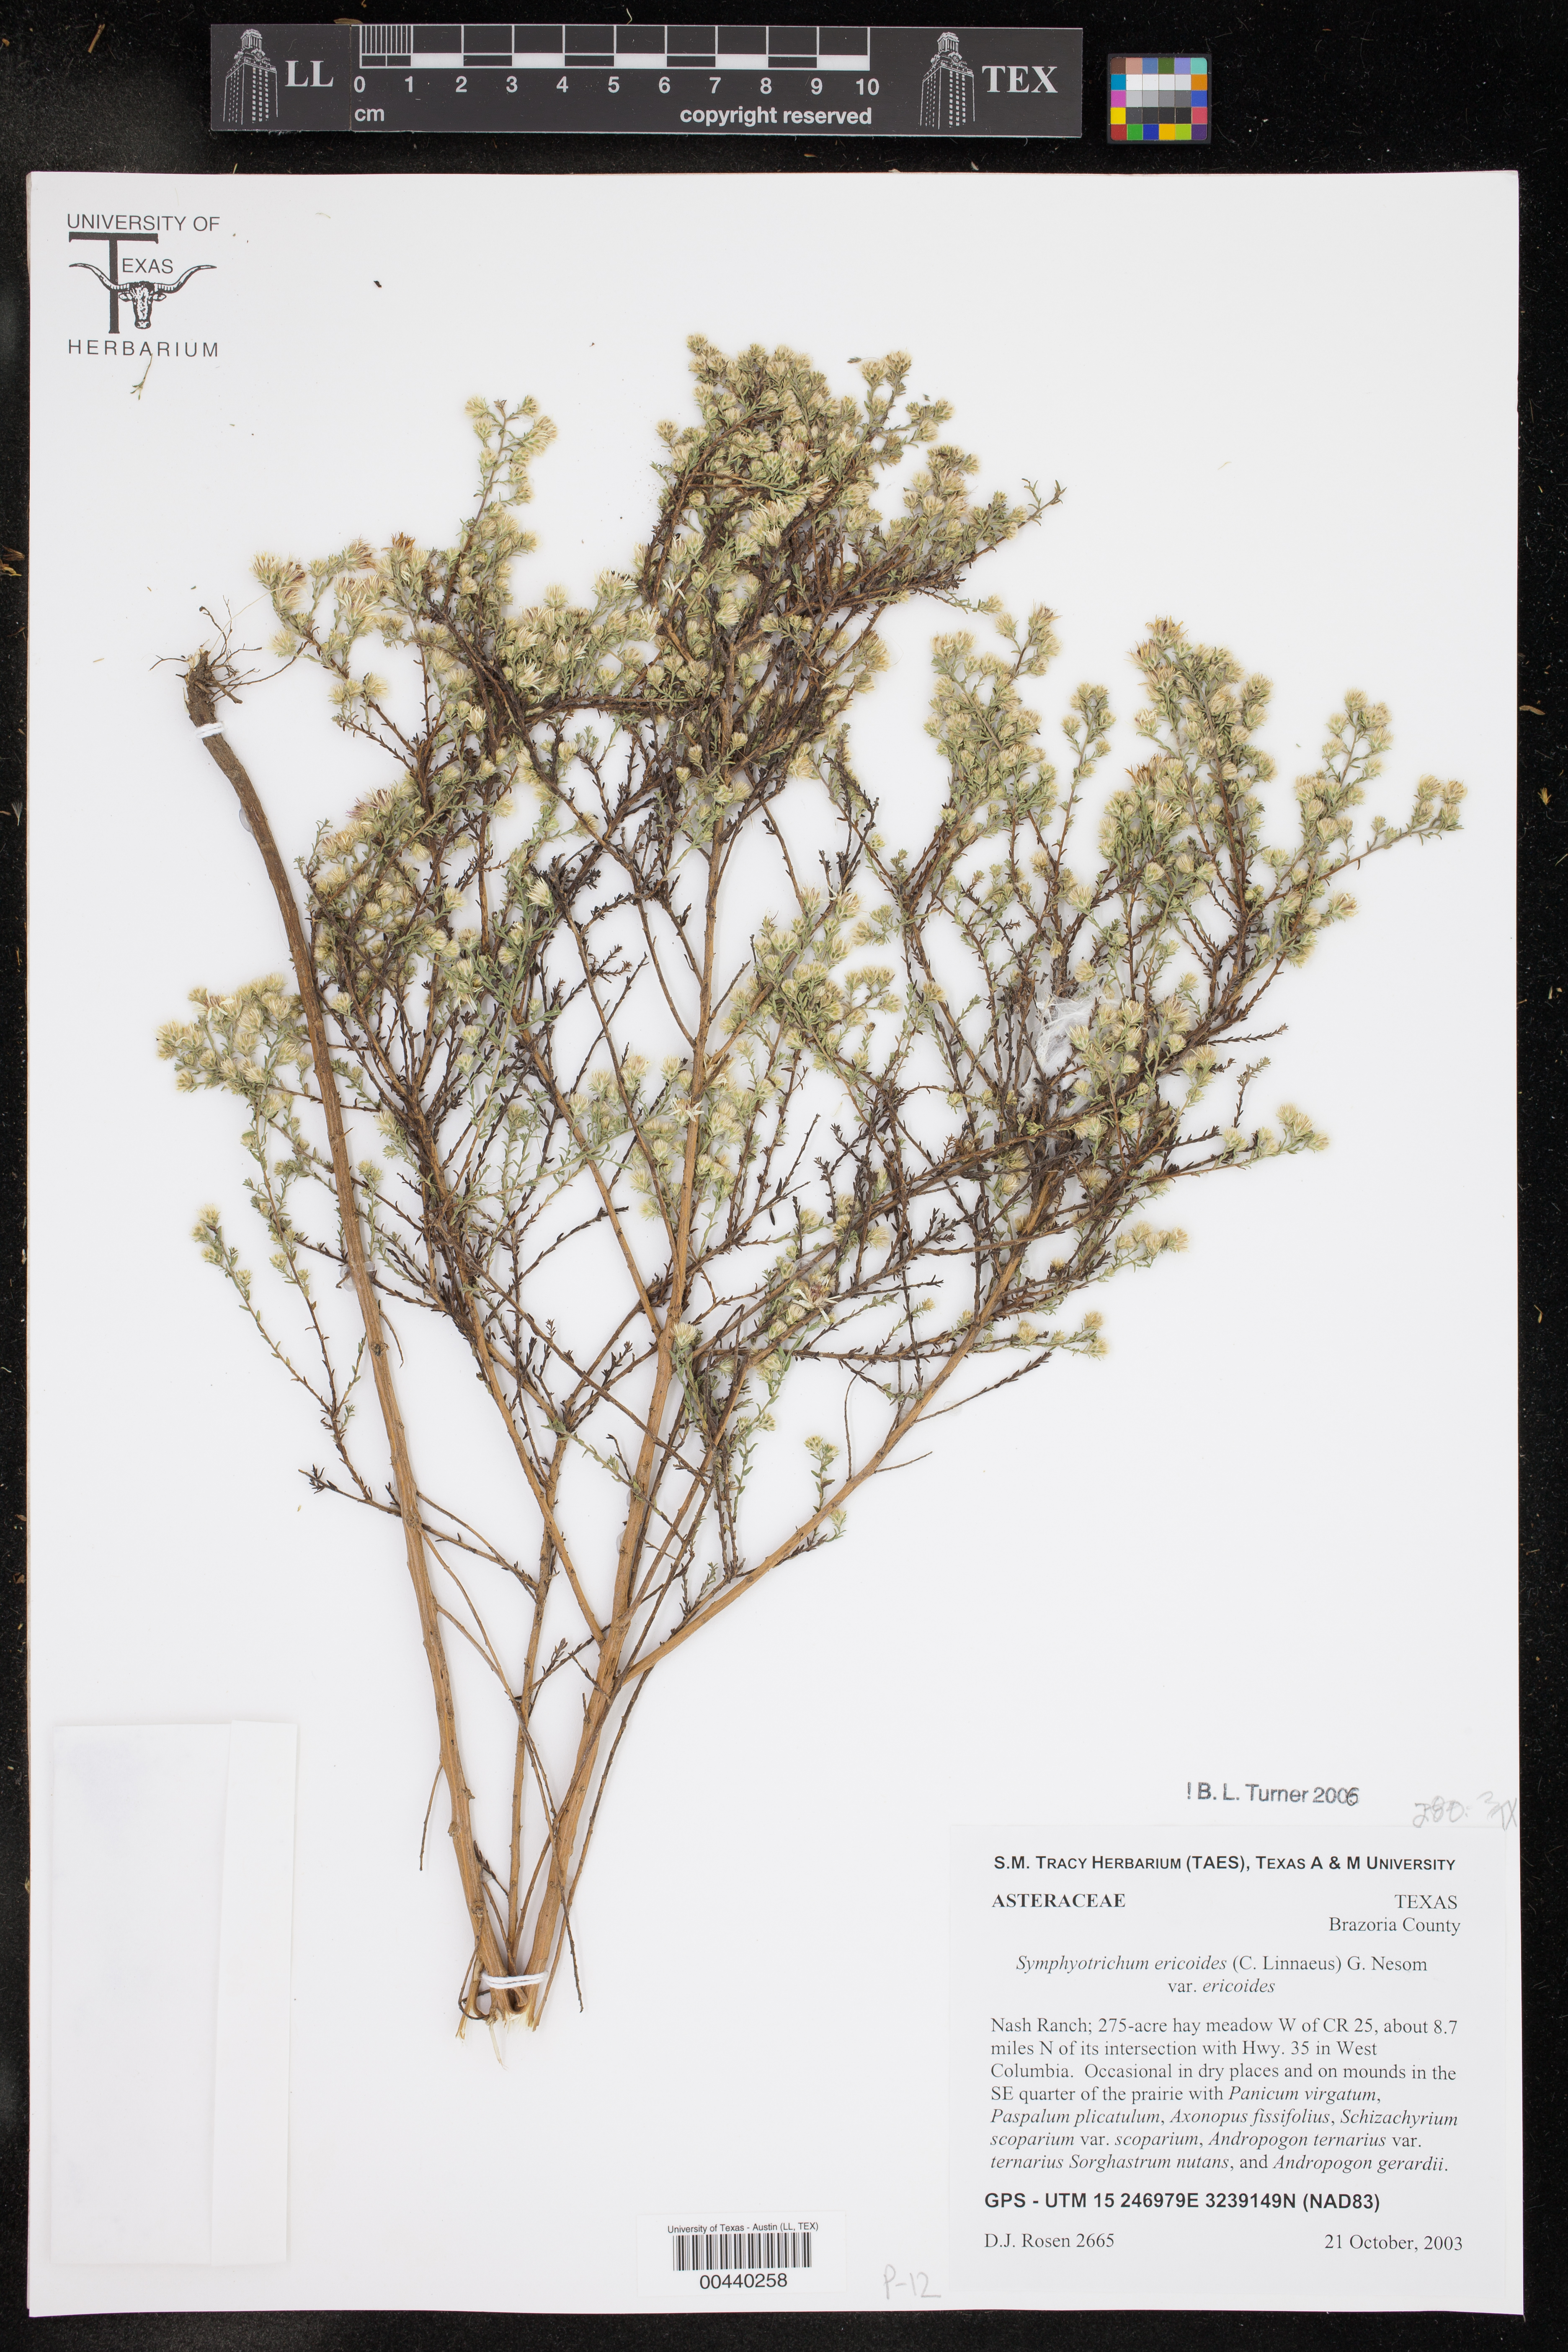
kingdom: Plantae
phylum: Tracheophyta
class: Magnoliopsida
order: Asterales
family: Asteraceae
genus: Symphyotrichum
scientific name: Symphyotrichum ericoides
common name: Heath aster
